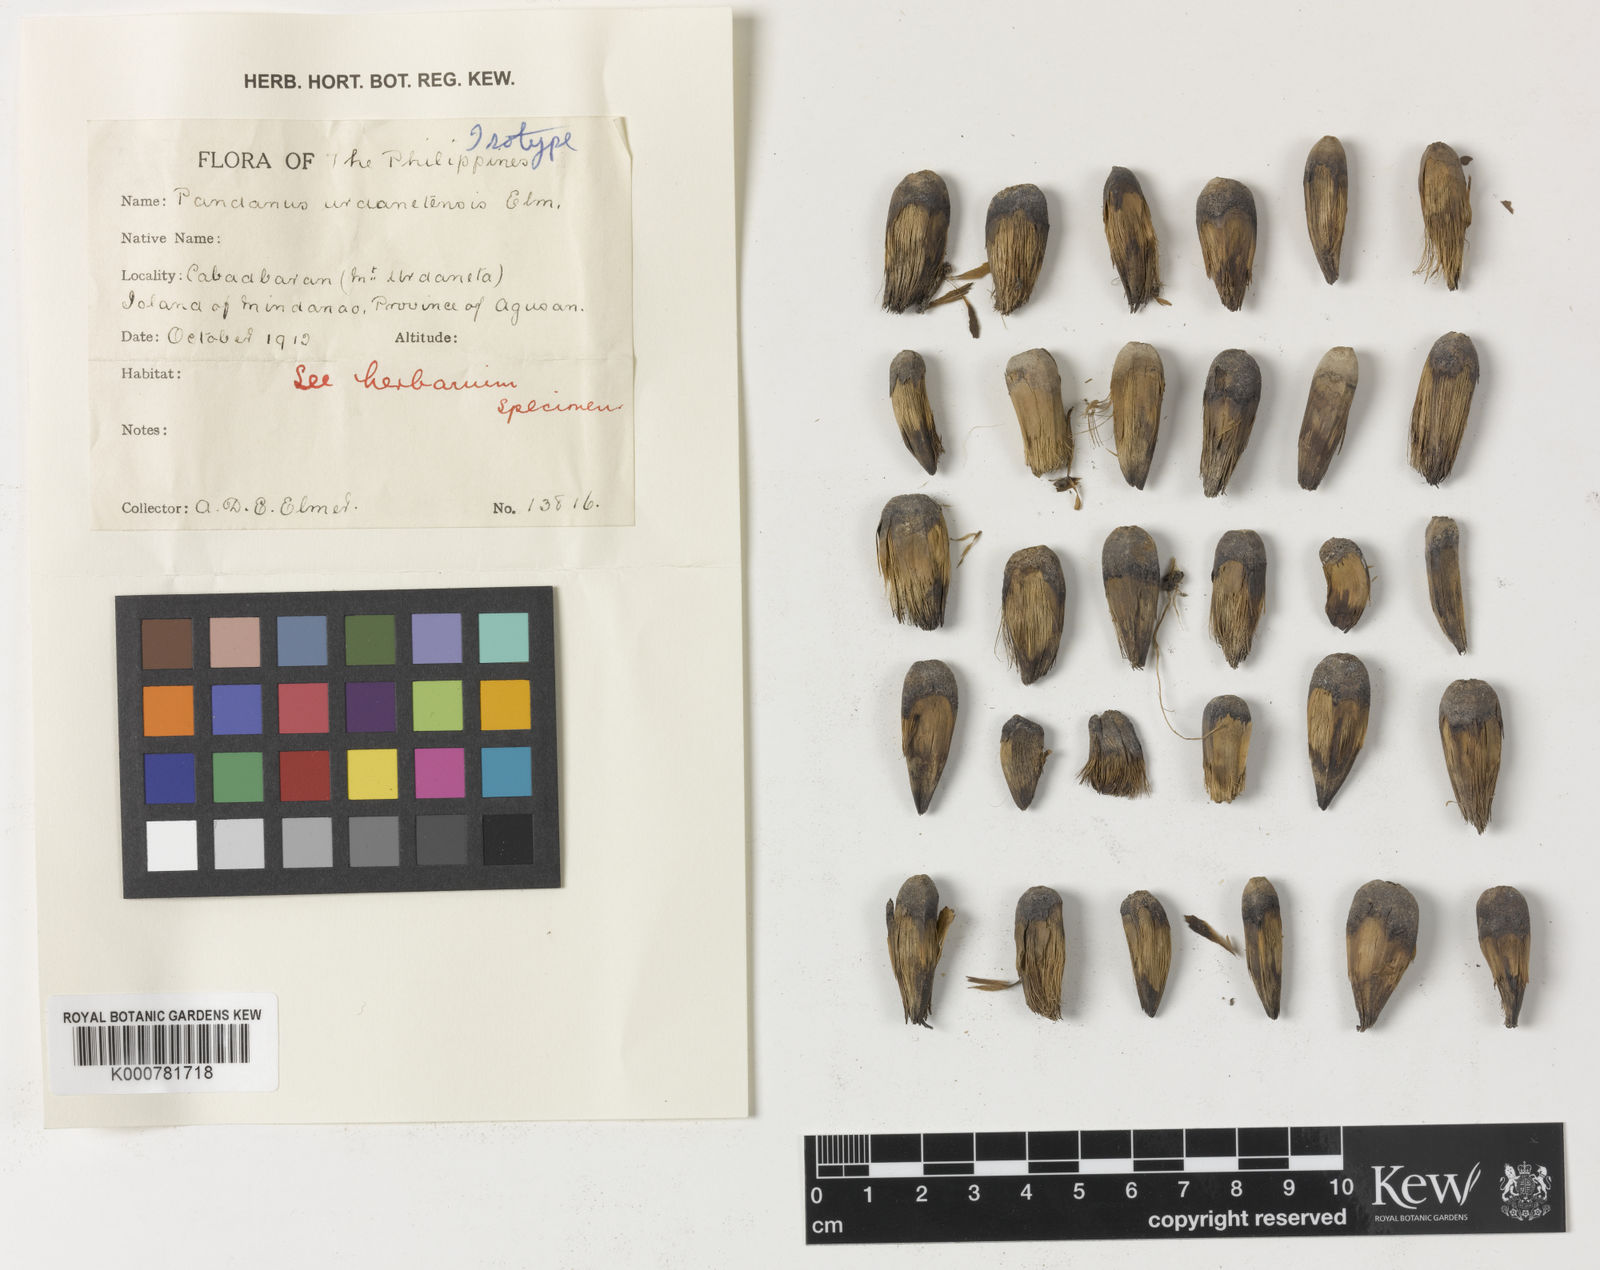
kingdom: Plantae
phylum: Tracheophyta
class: Liliopsida
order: Pandanales
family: Pandanaceae
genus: Pandanus
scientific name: Pandanus
